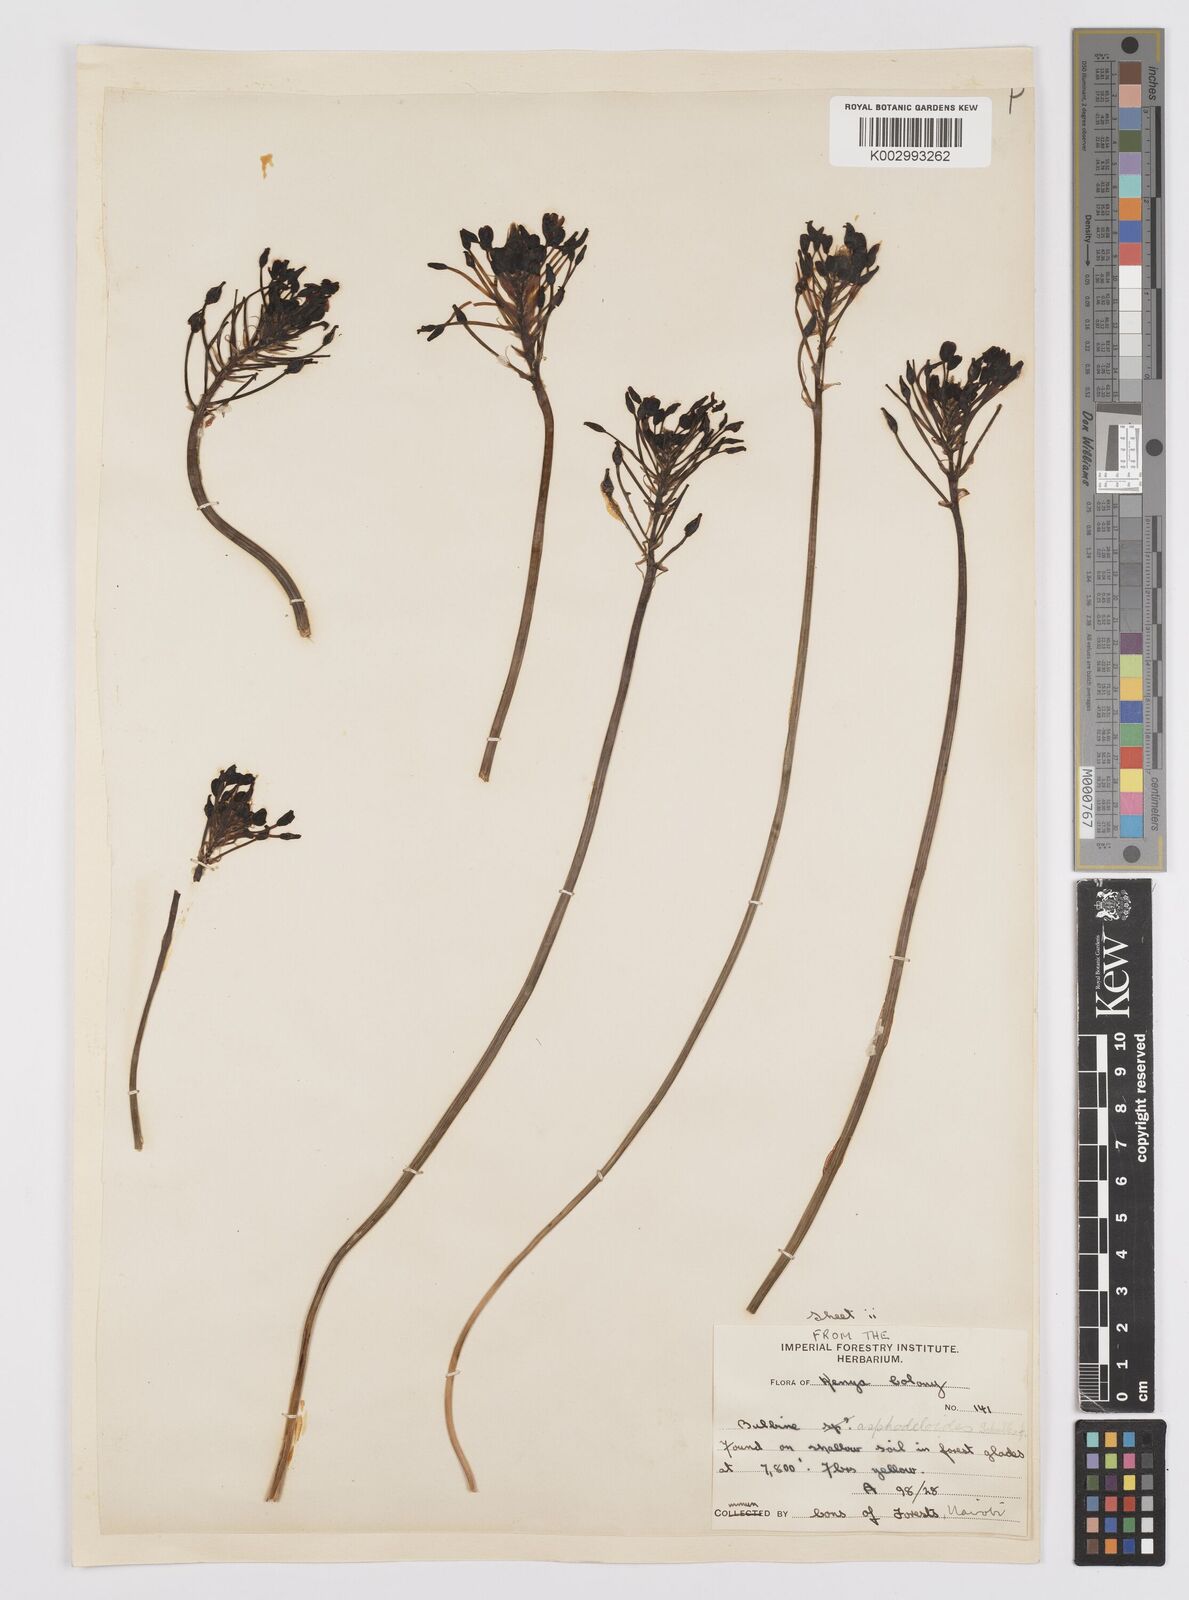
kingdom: Plantae
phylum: Tracheophyta
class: Liliopsida
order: Asparagales
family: Asphodelaceae
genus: Bulbine
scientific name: Bulbine abyssinica
